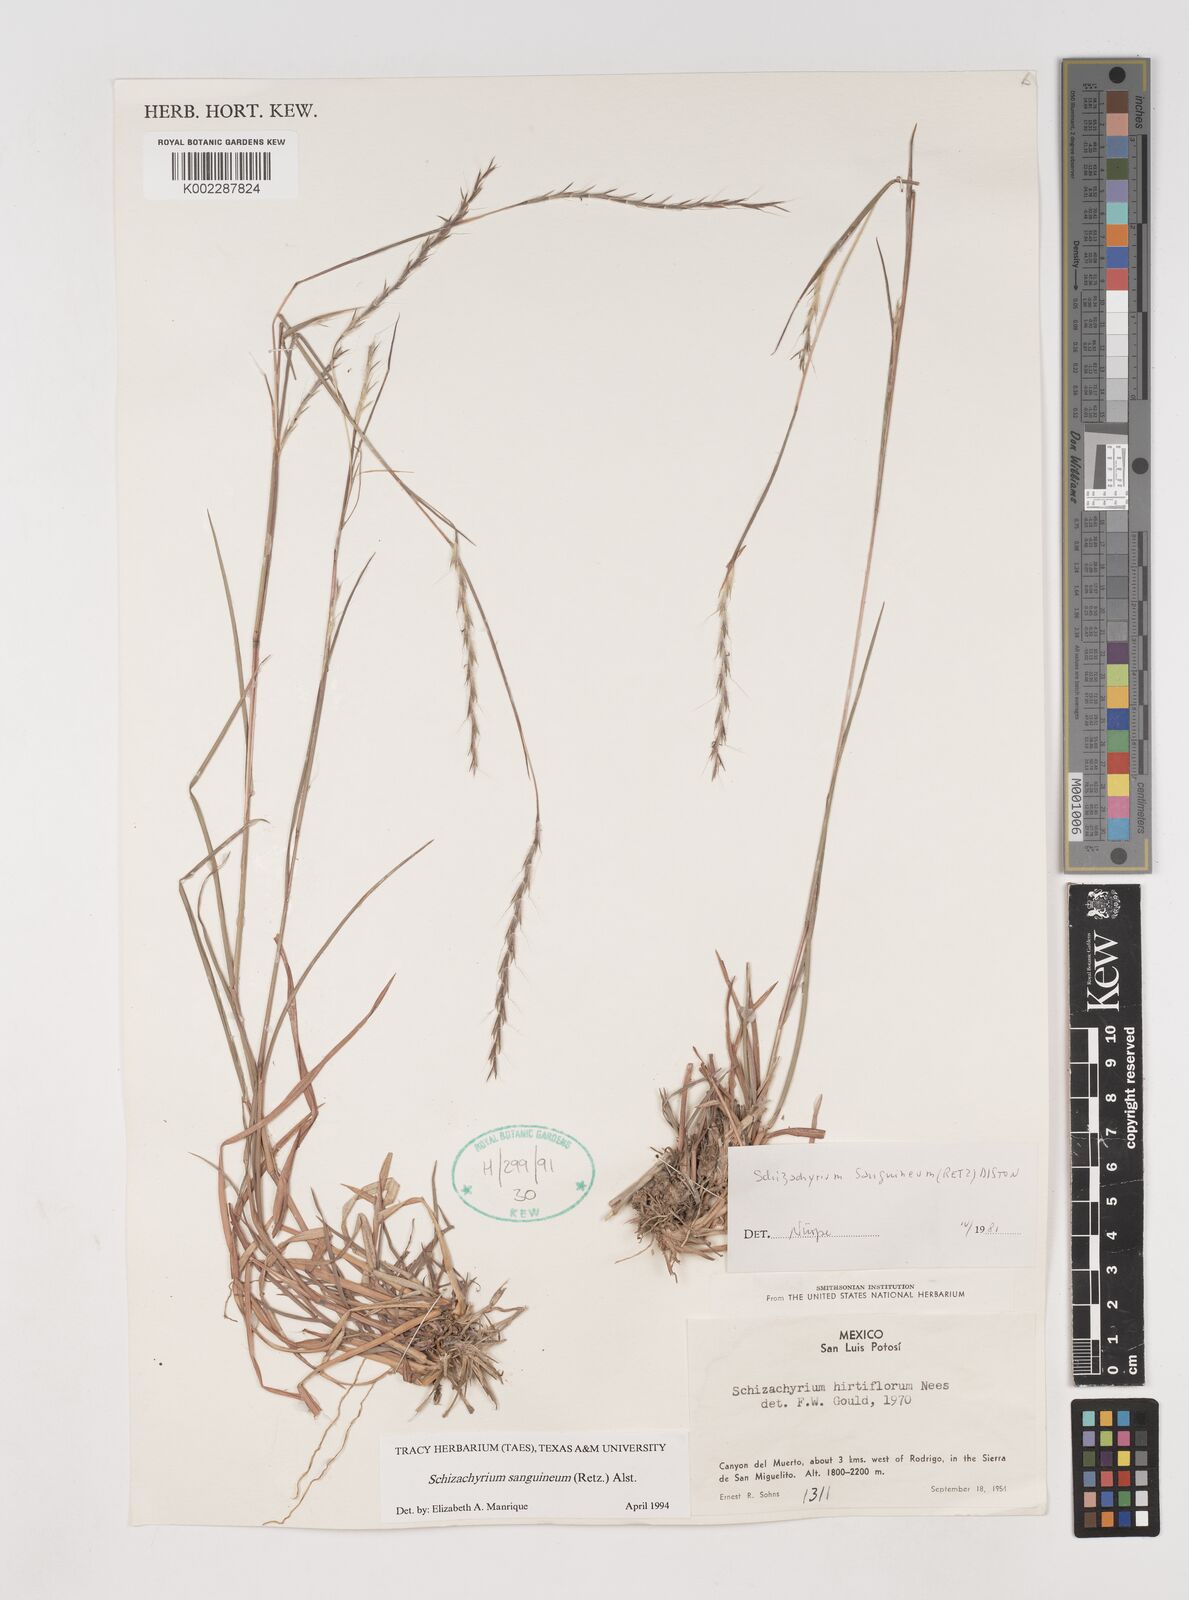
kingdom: Plantae
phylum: Tracheophyta
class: Liliopsida
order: Poales
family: Poaceae
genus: Schizachyrium
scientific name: Schizachyrium sanguineum
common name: Crimson bluestem
